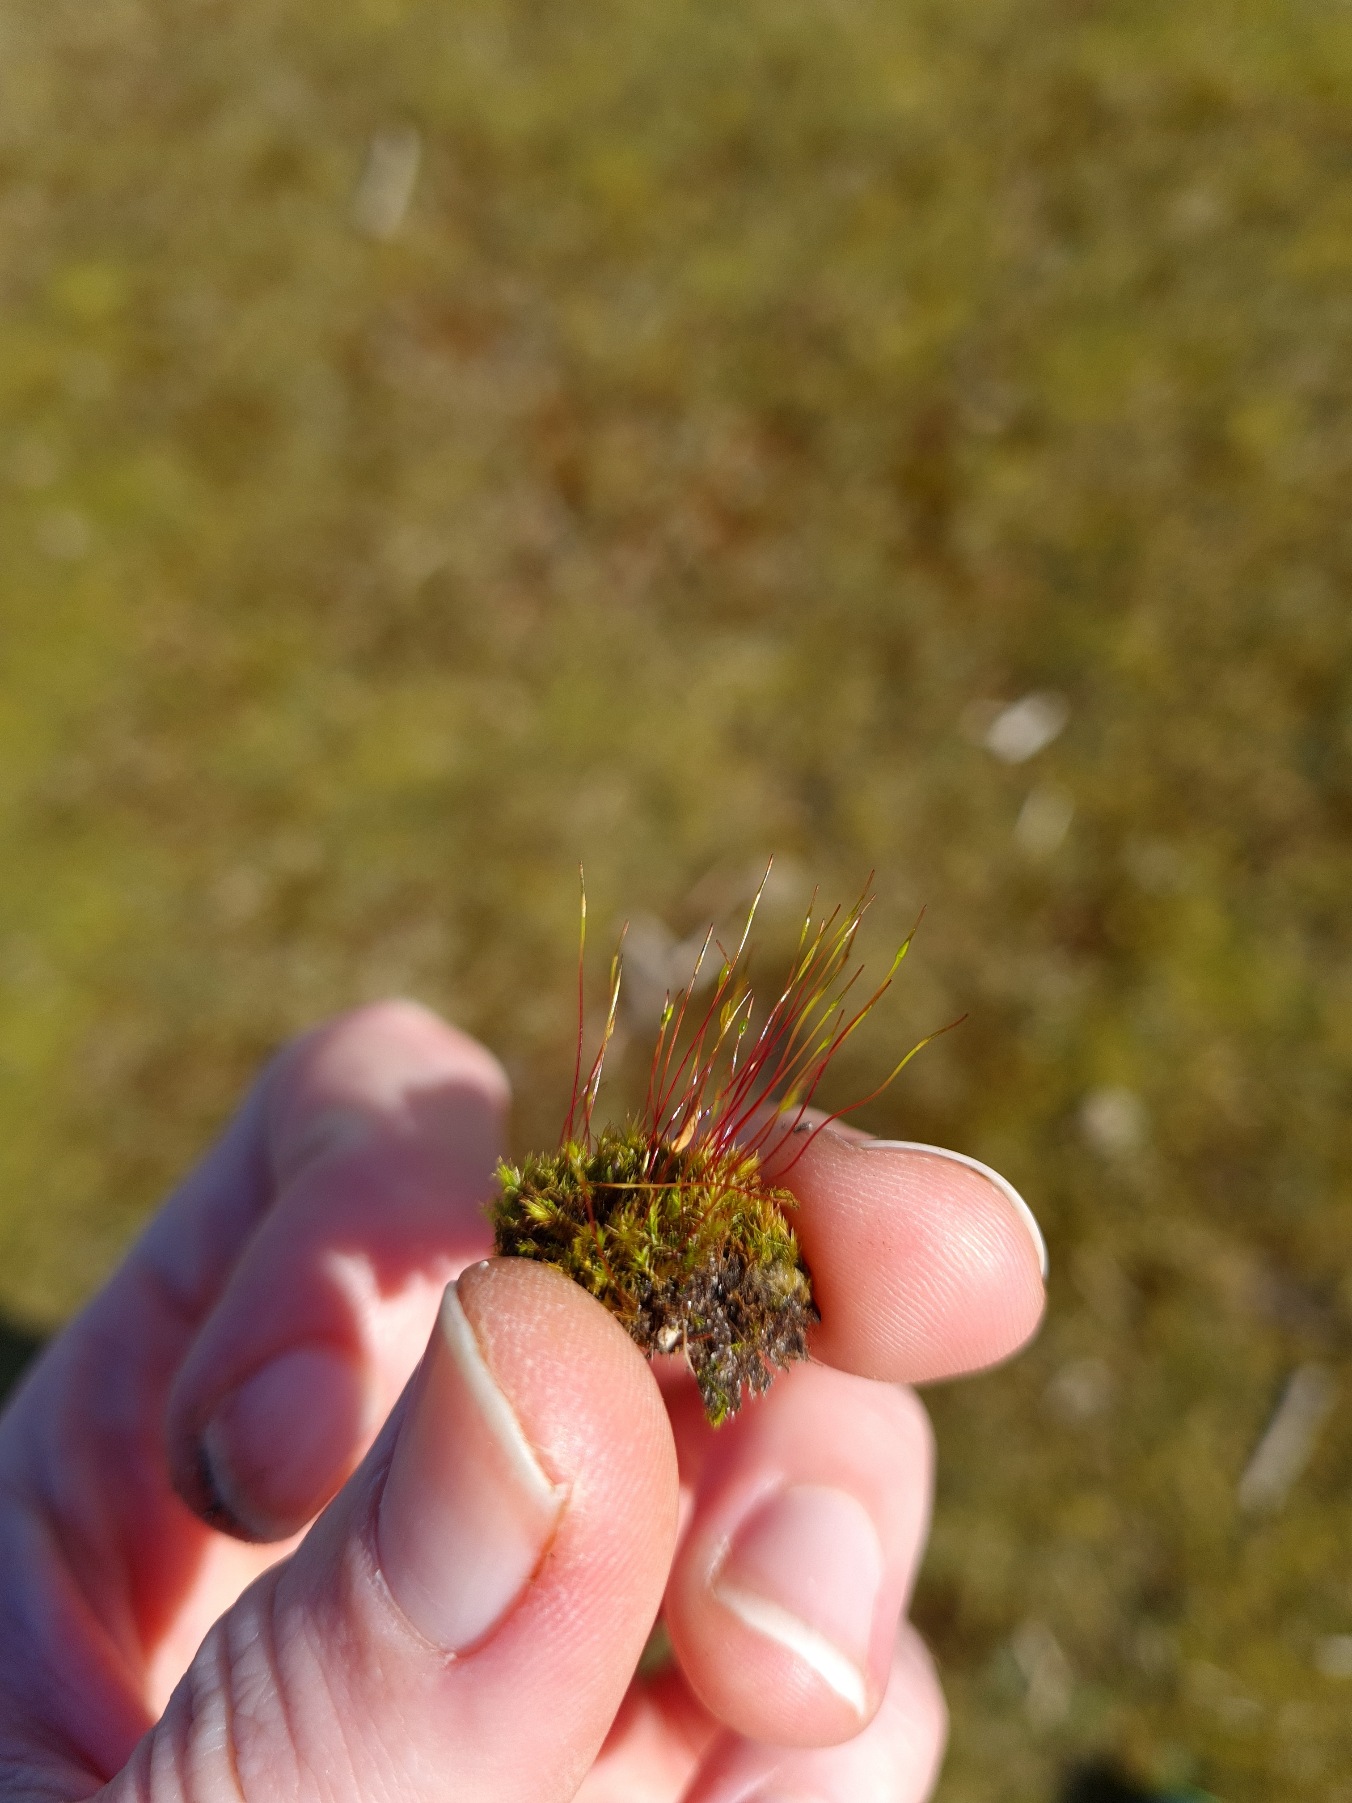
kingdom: Plantae
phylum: Bryophyta
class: Bryopsida
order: Dicranales
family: Ditrichaceae
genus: Ceratodon
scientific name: Ceratodon purpureus
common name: Rød horntand
